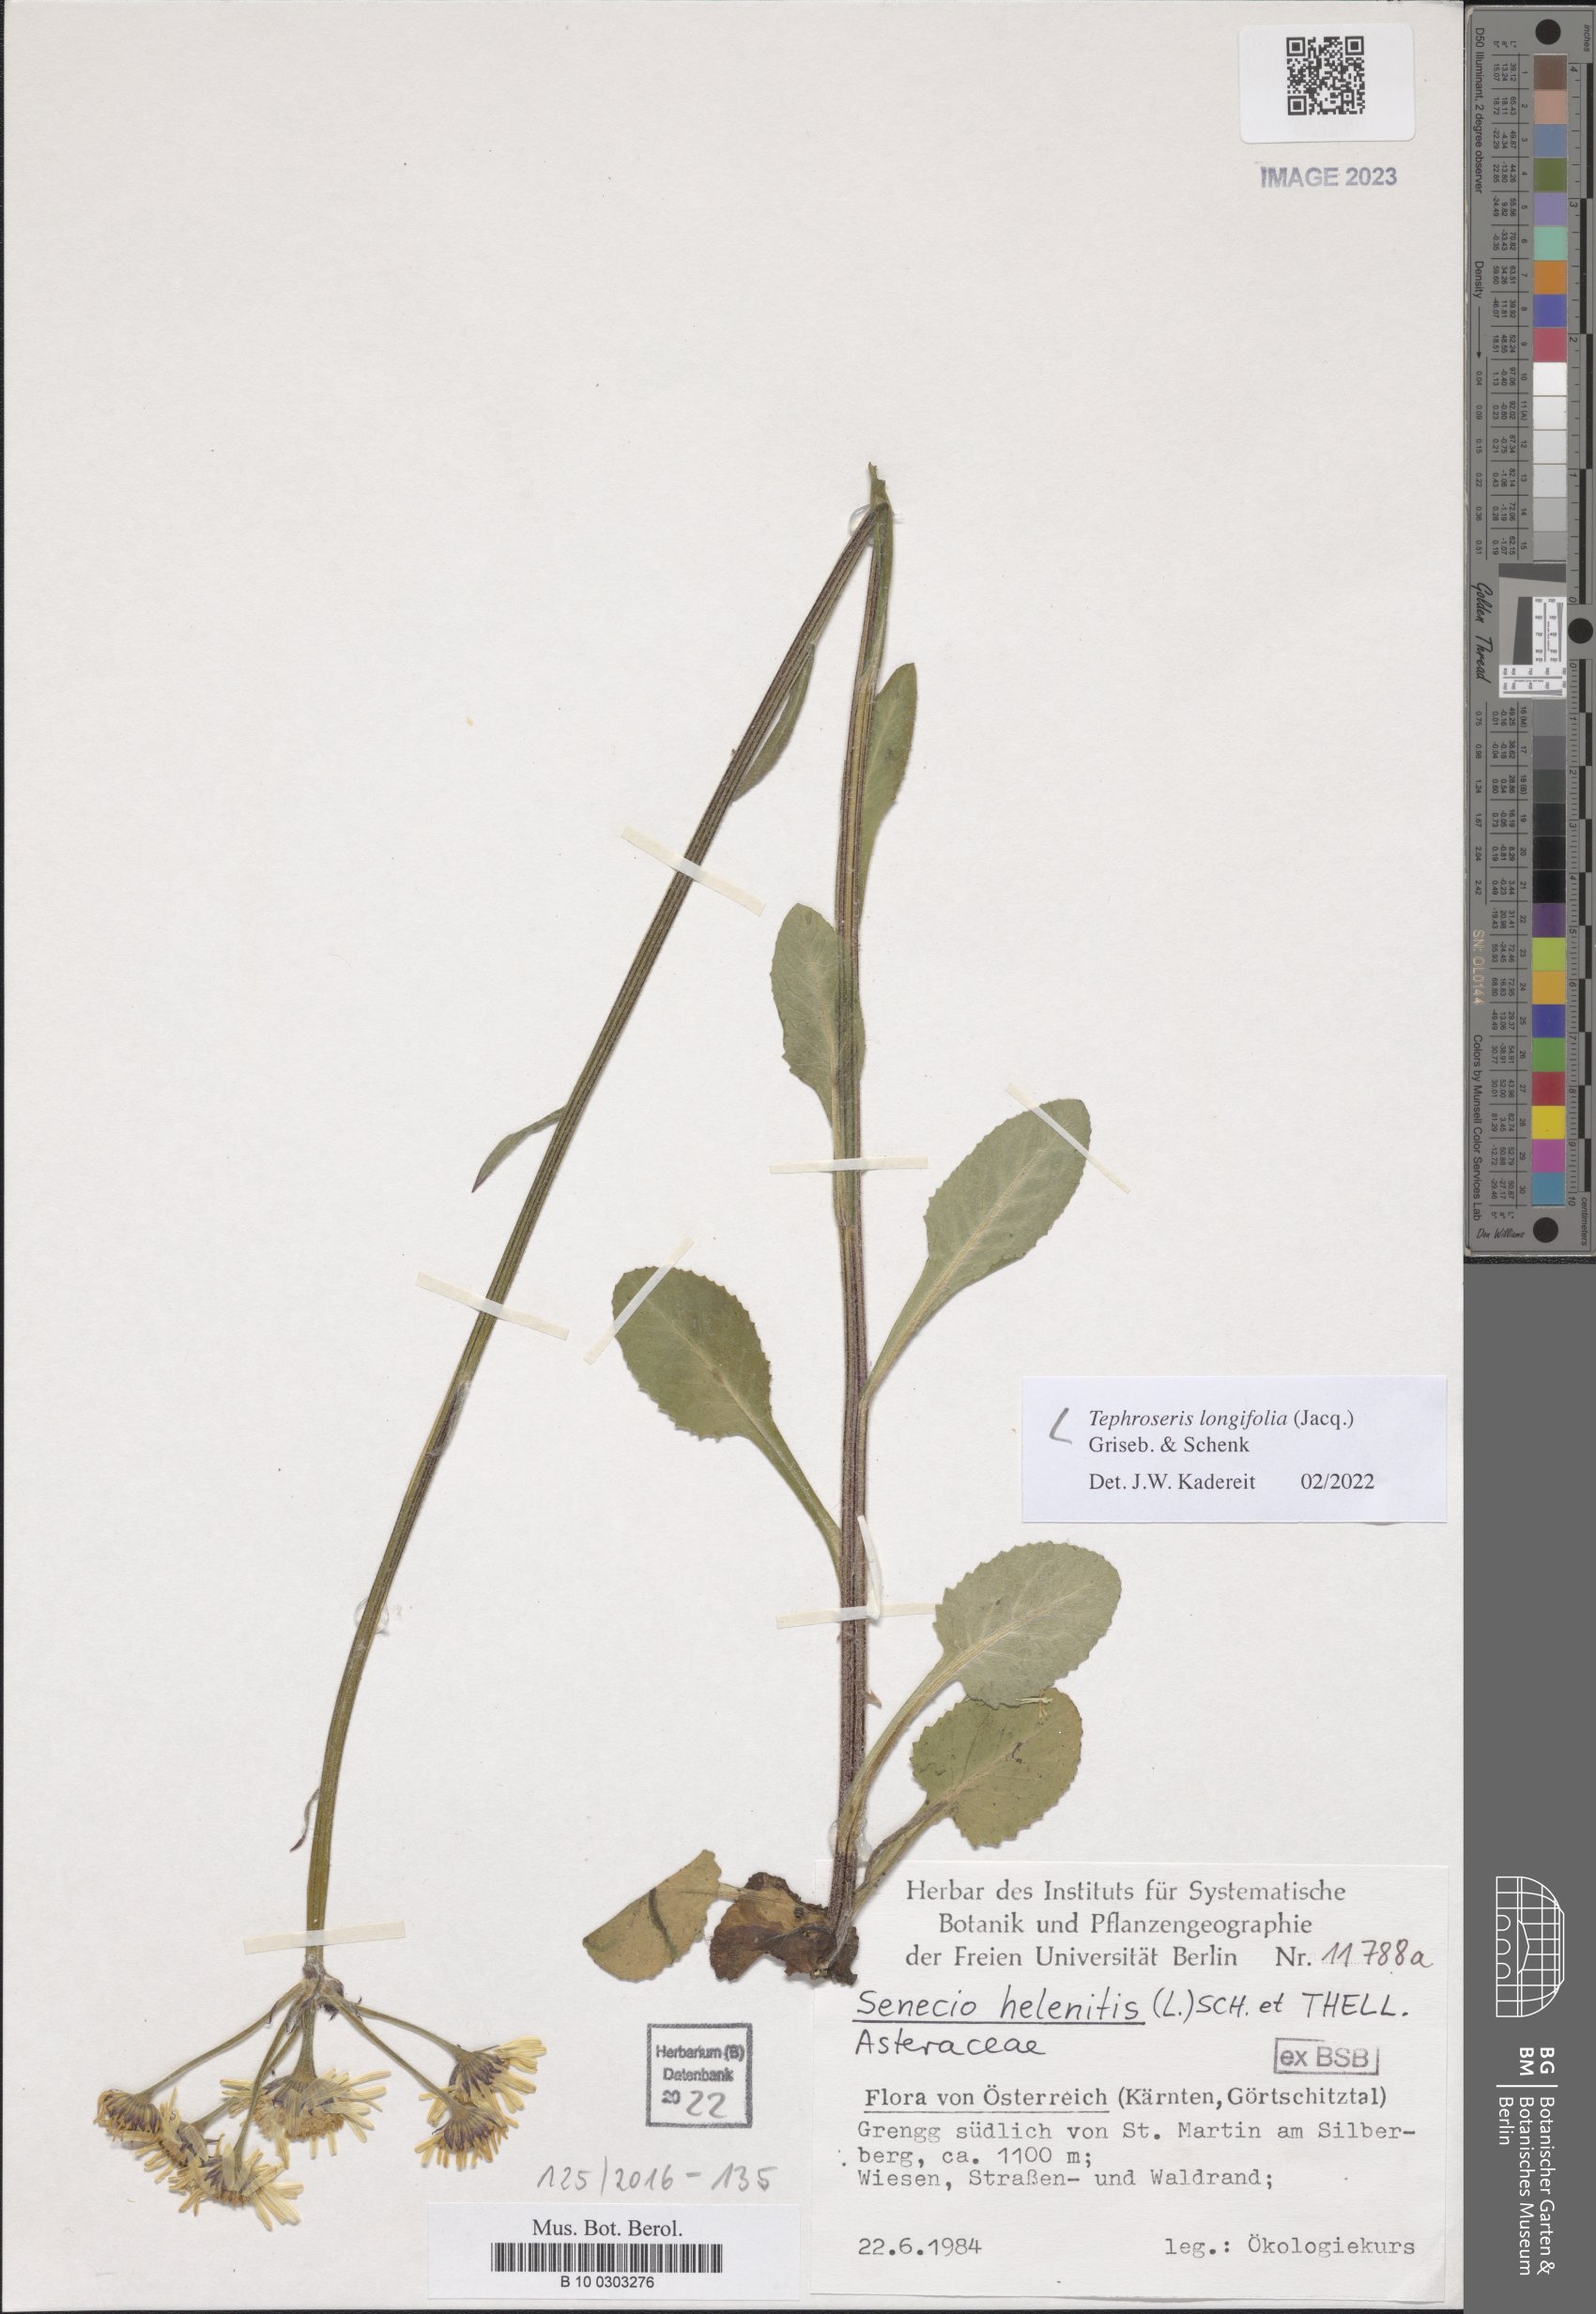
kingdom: Plantae
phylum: Tracheophyta
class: Magnoliopsida
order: Asterales
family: Asteraceae
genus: Tephroseris
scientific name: Tephroseris longifolia
